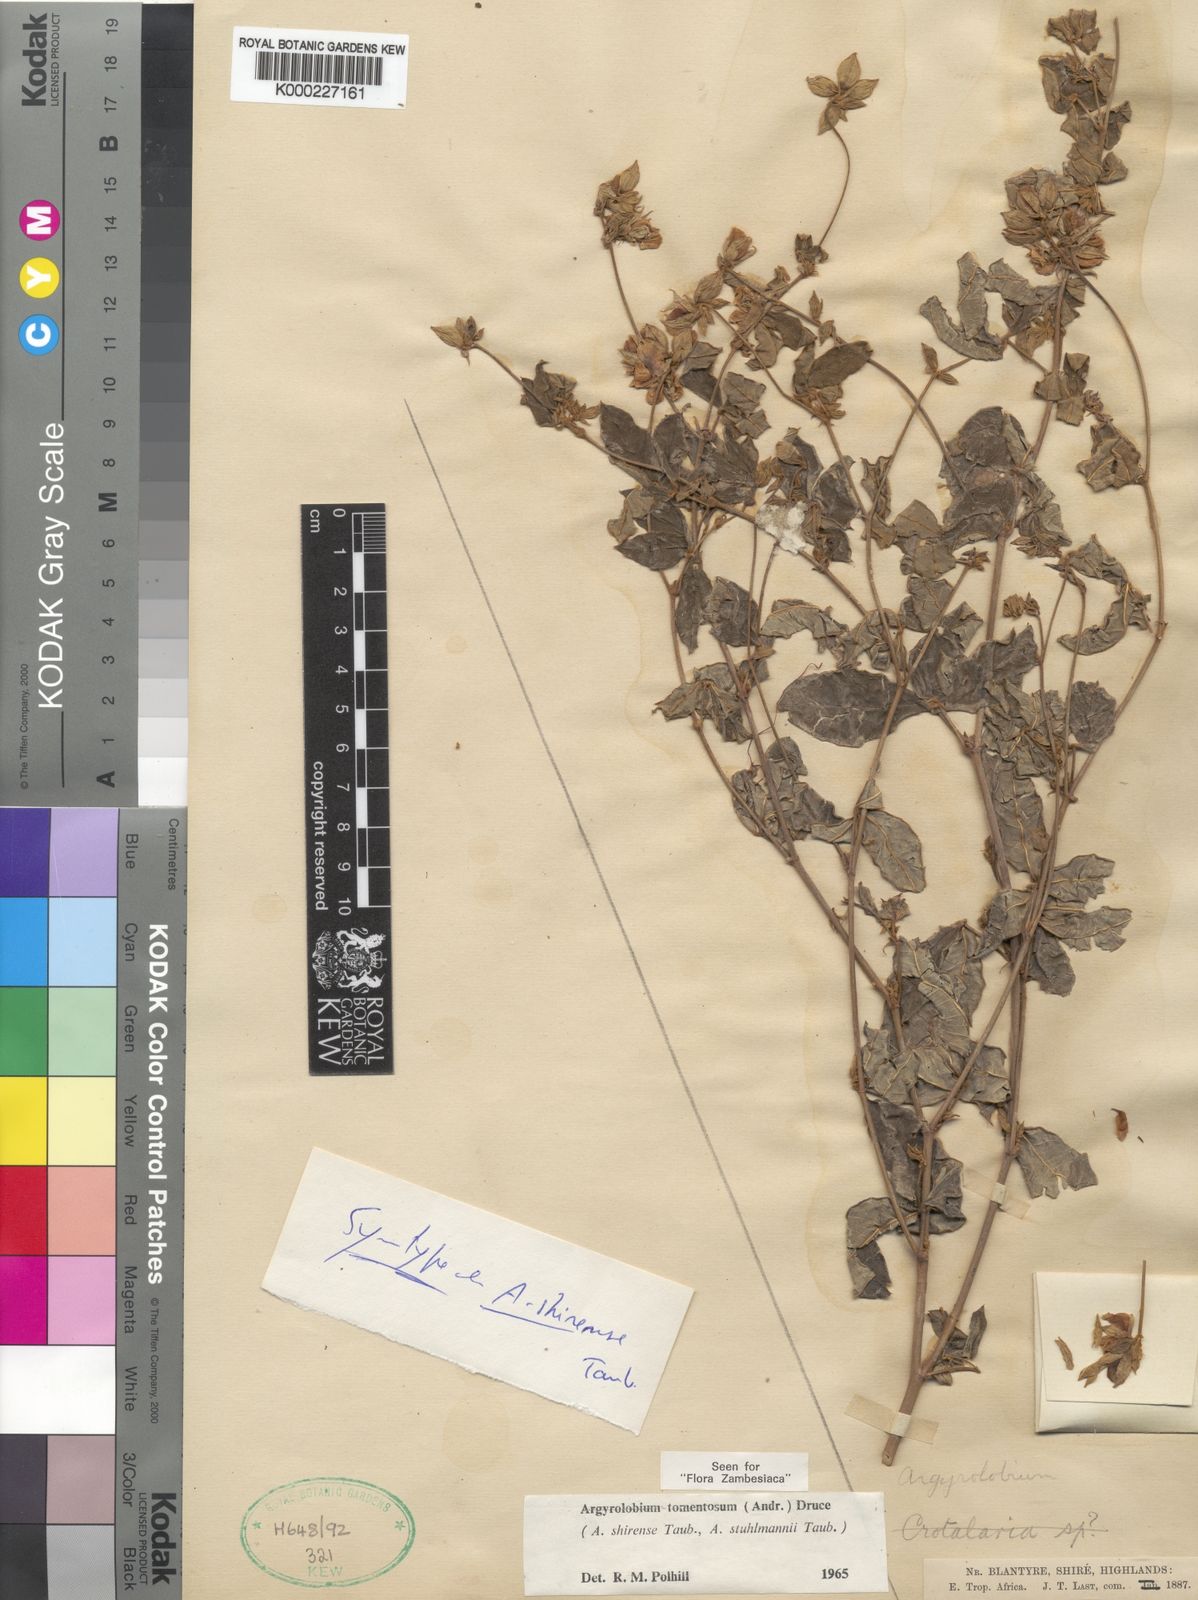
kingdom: Plantae
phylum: Tracheophyta
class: Magnoliopsida
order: Fabales
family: Fabaceae
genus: Argyrolobium
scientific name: Argyrolobium tomentosum
